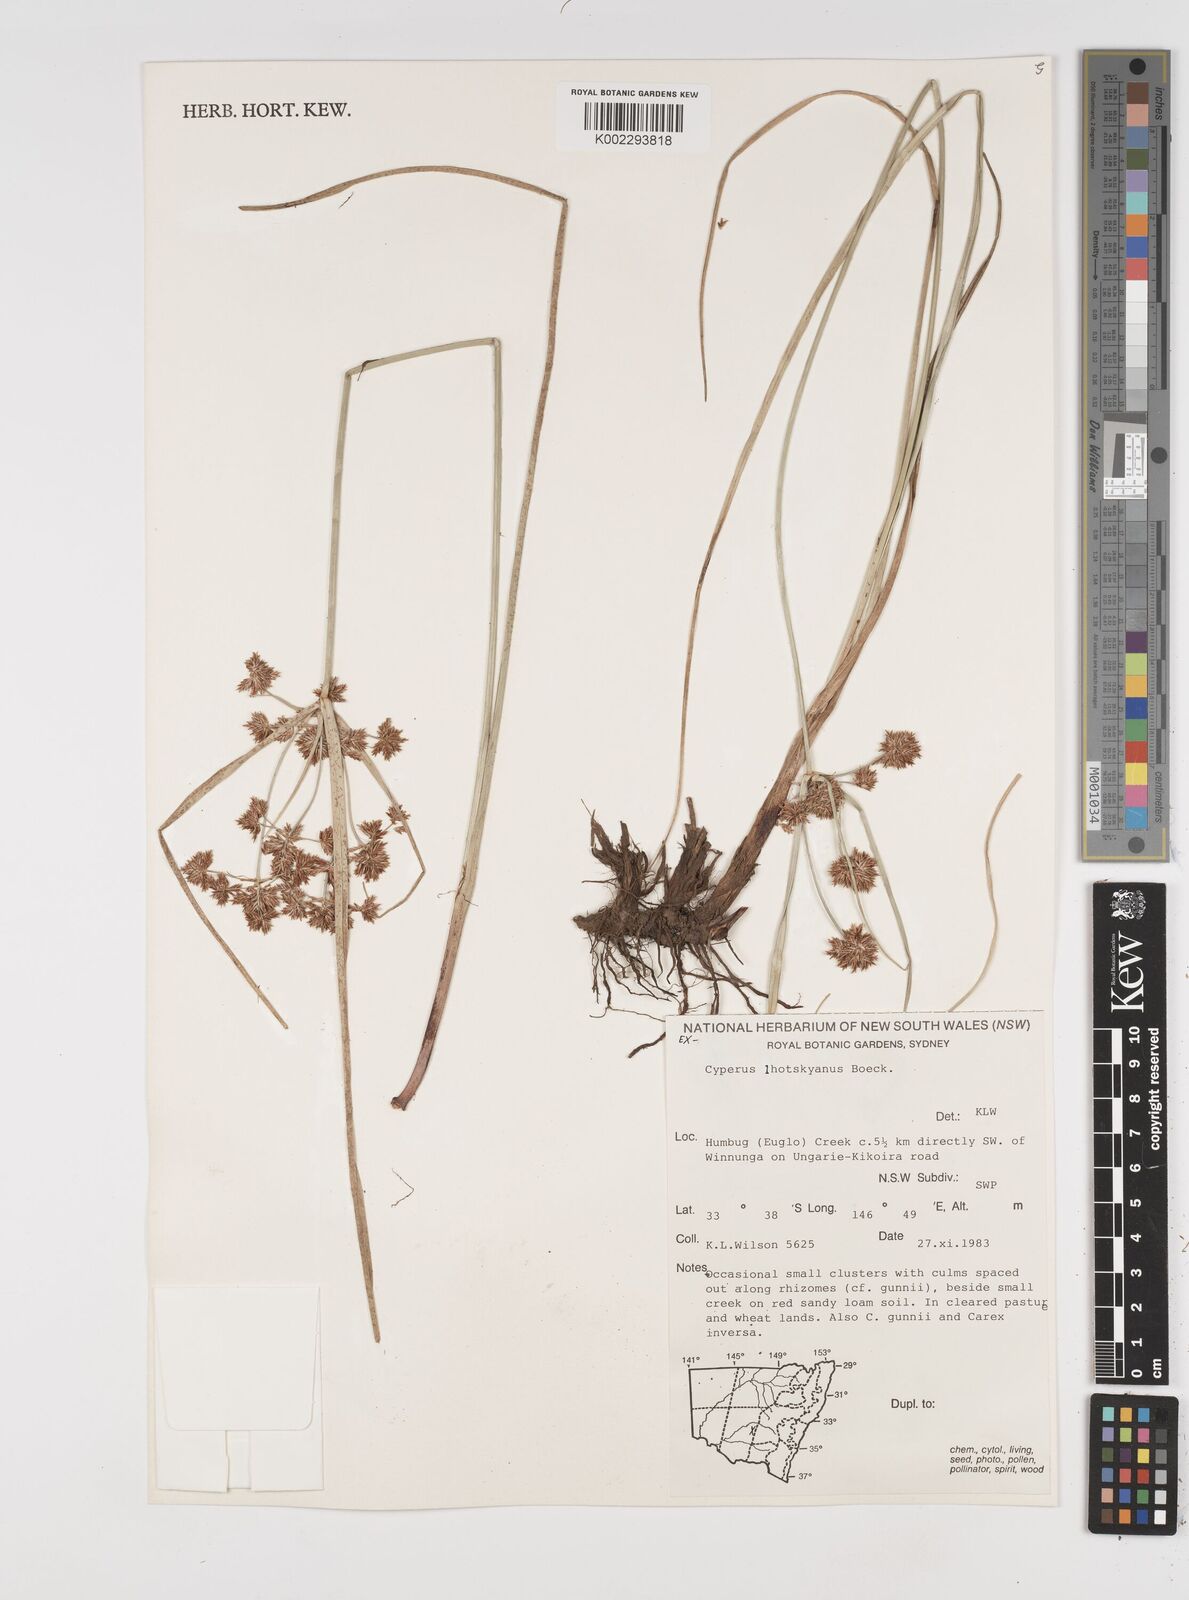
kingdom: Plantae
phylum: Tracheophyta
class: Liliopsida
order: Poales
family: Cyperaceae
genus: Cyperus
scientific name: Cyperus lhotskyanus
